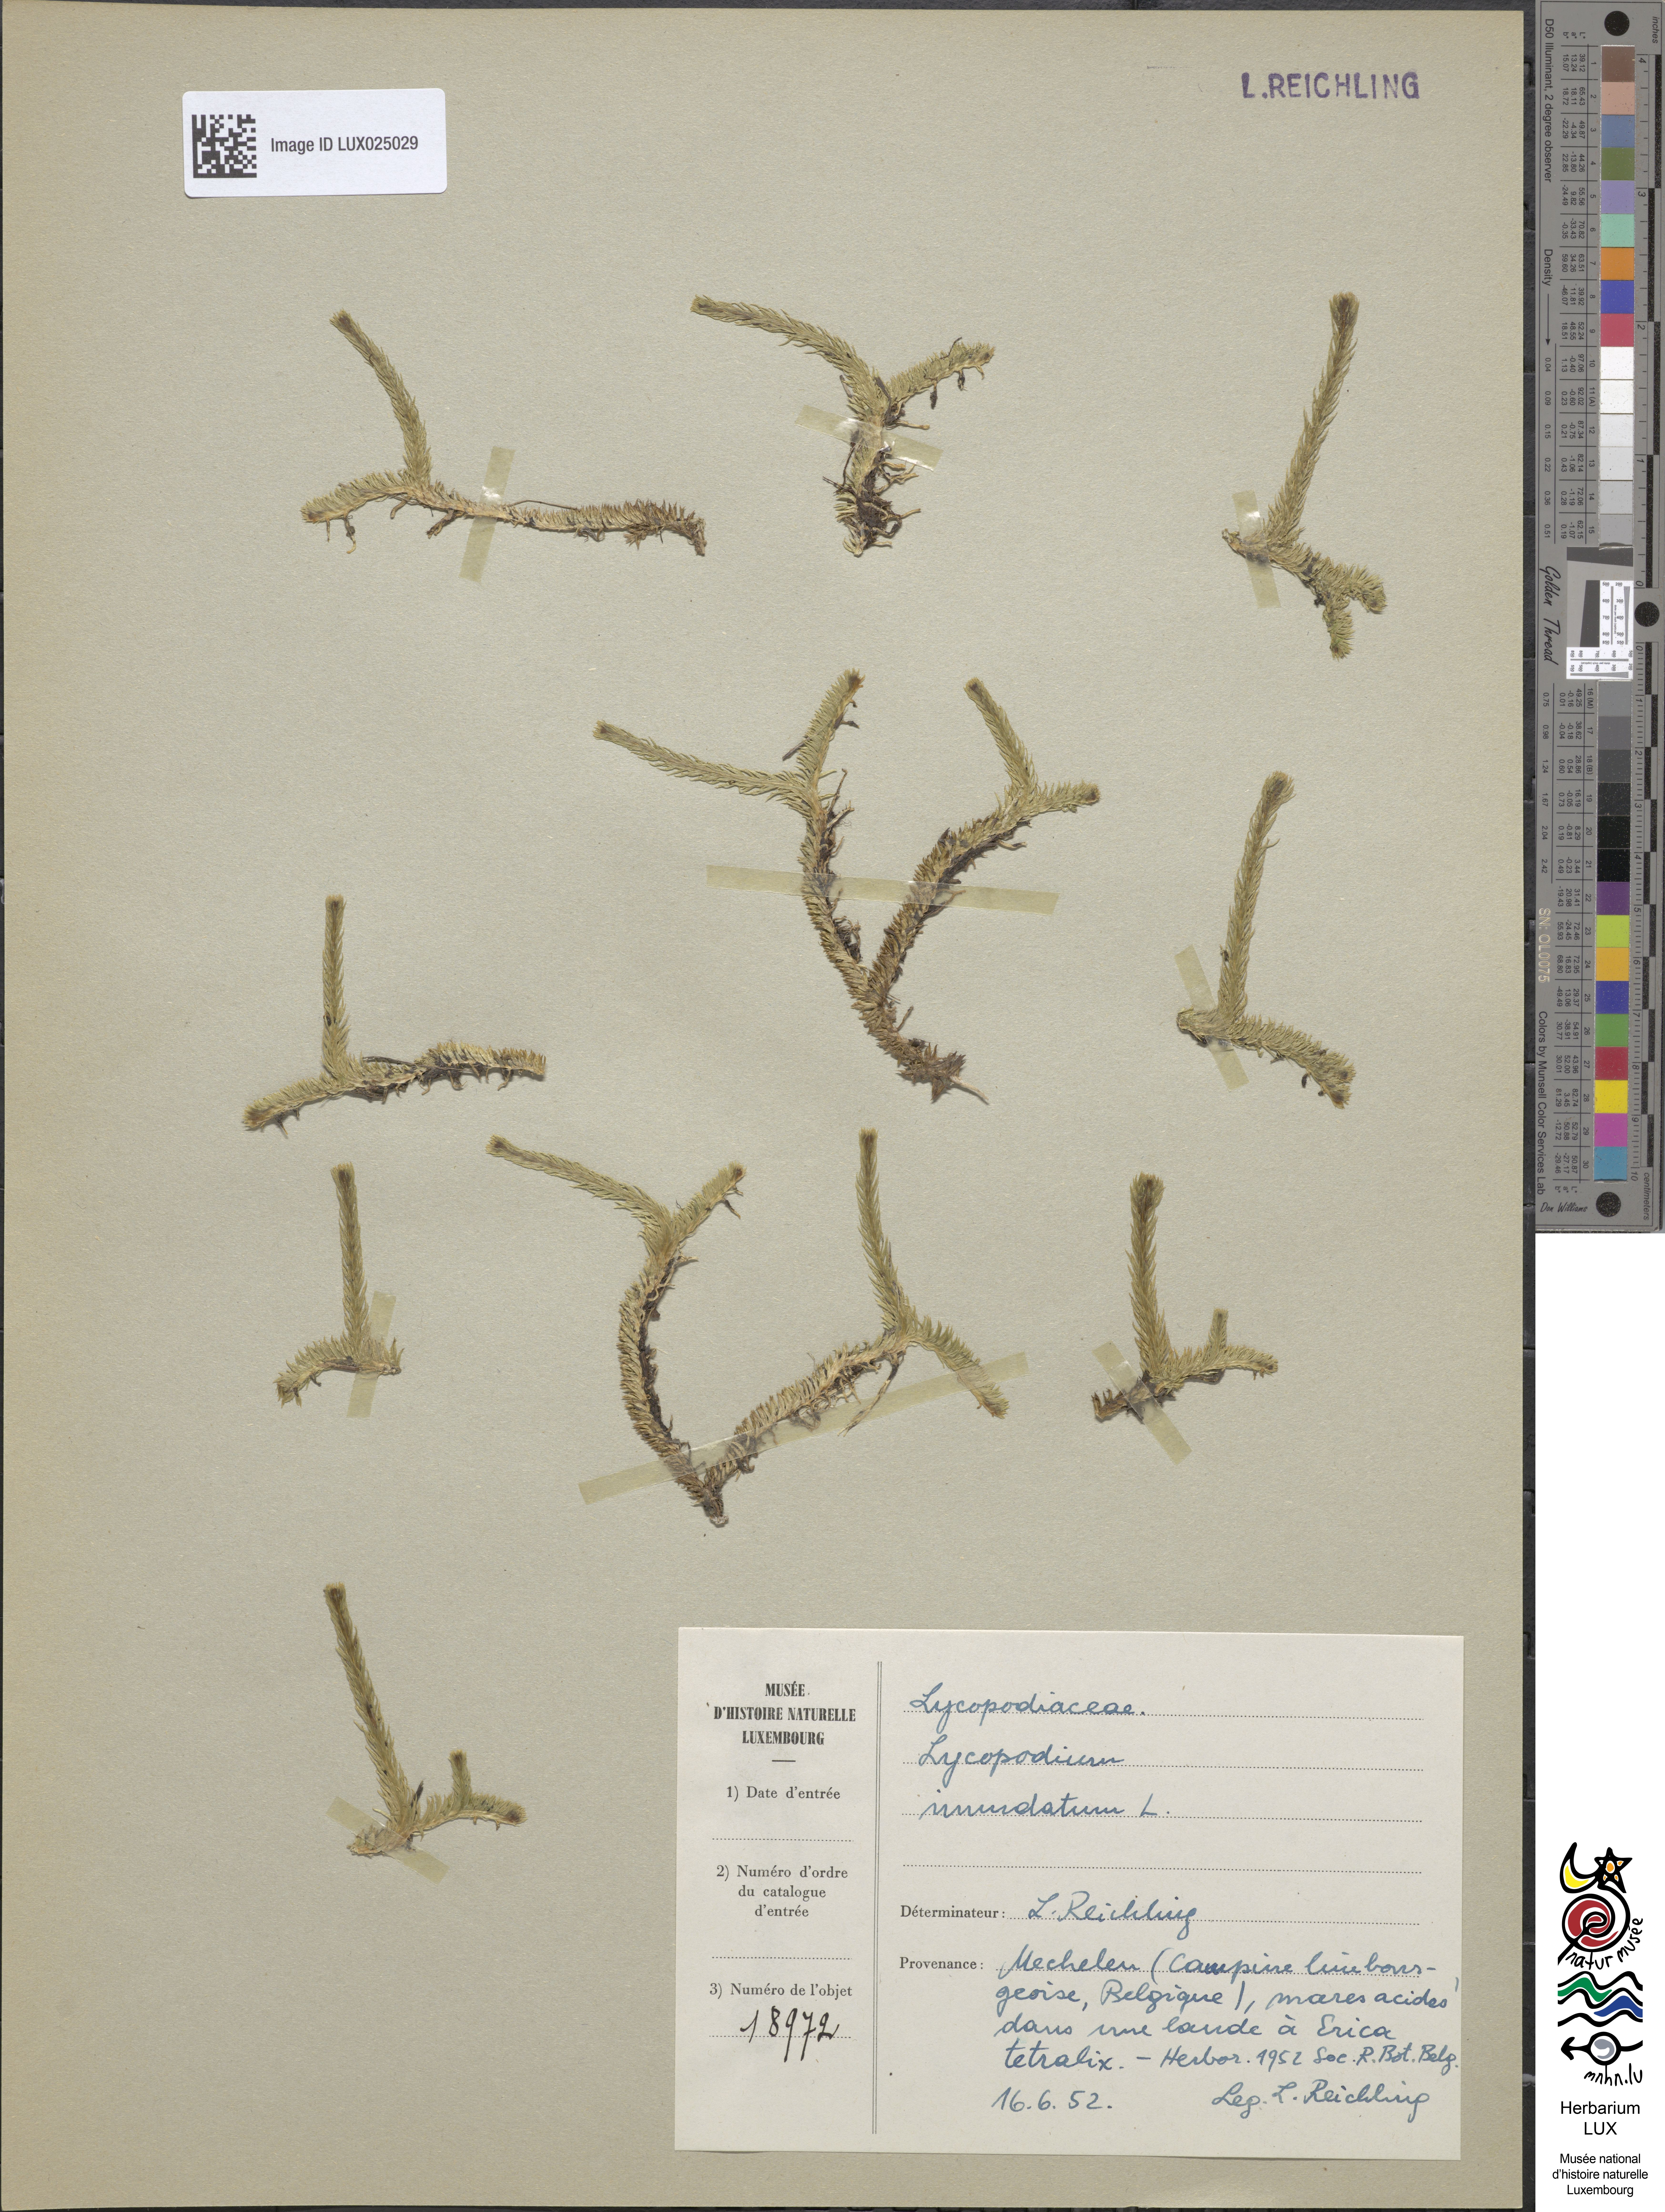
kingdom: Plantae
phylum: Tracheophyta
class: Lycopodiopsida
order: Lycopodiales
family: Lycopodiaceae
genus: Lycopodiella
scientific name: Lycopodiella inundata
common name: Marsh clubmoss
